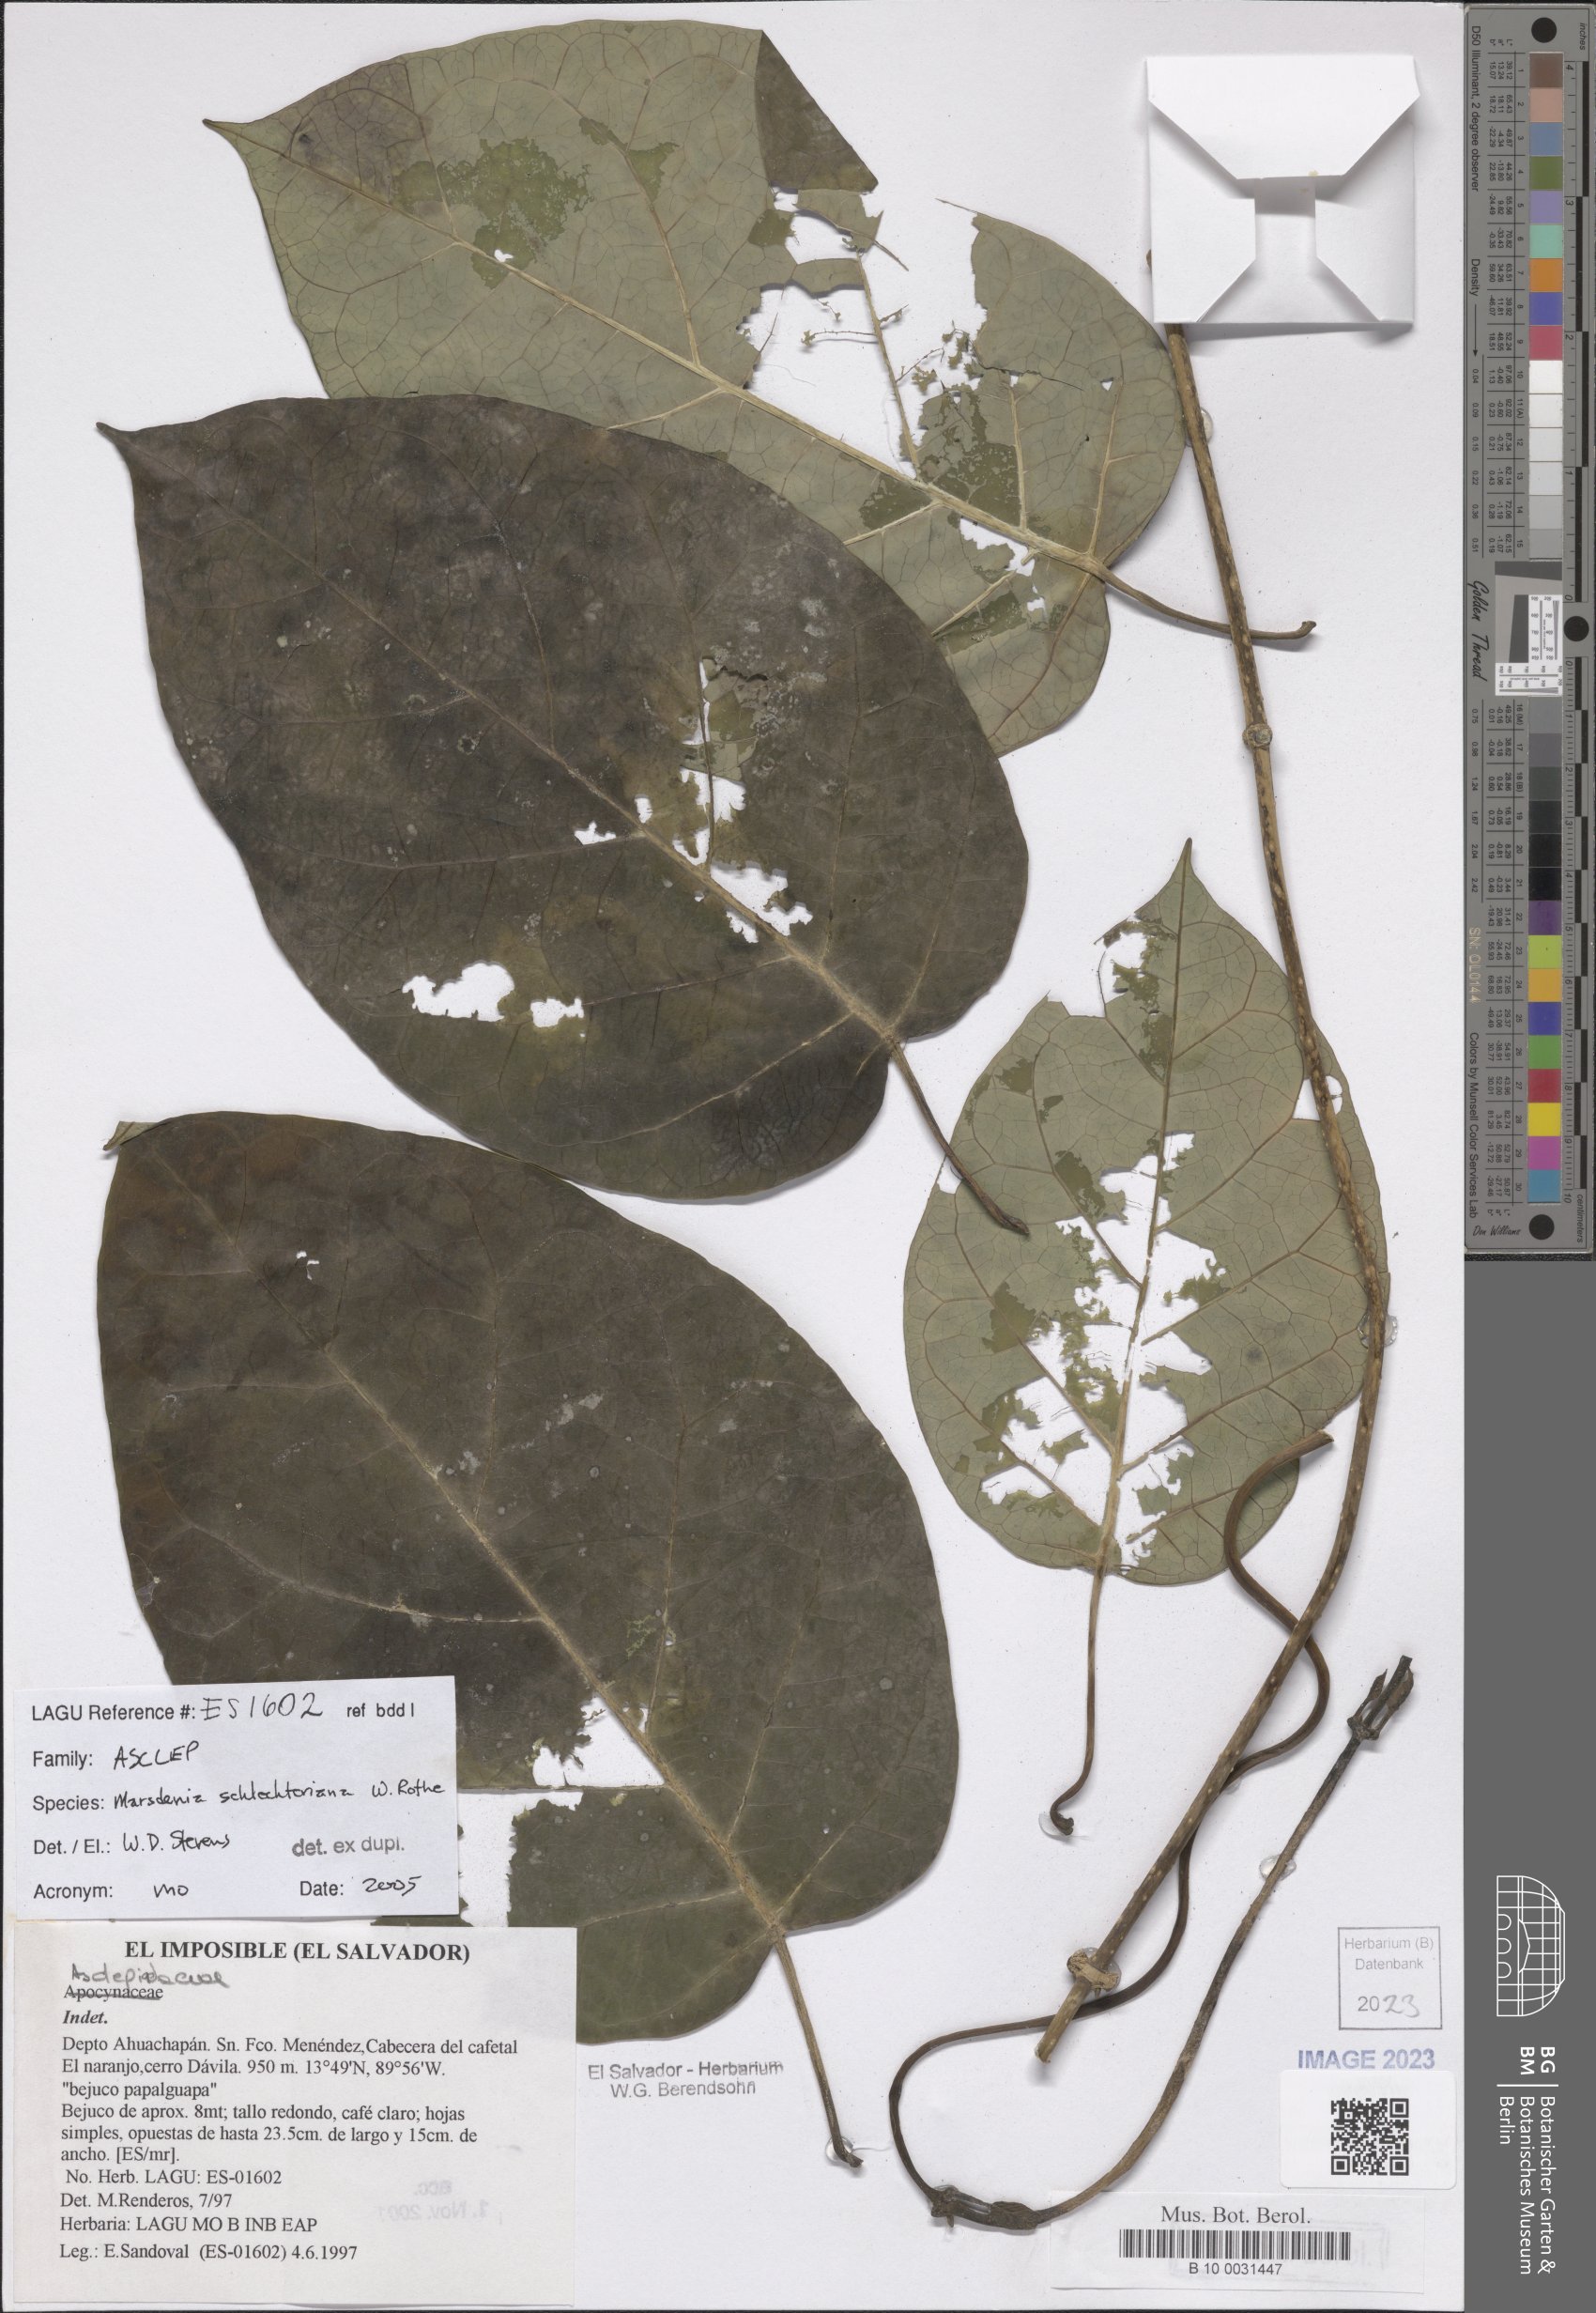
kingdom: Plantae
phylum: Tracheophyta
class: Magnoliopsida
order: Gentianales
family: Apocynaceae
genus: Ruehssia
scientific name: Ruehssia schlechteriana
